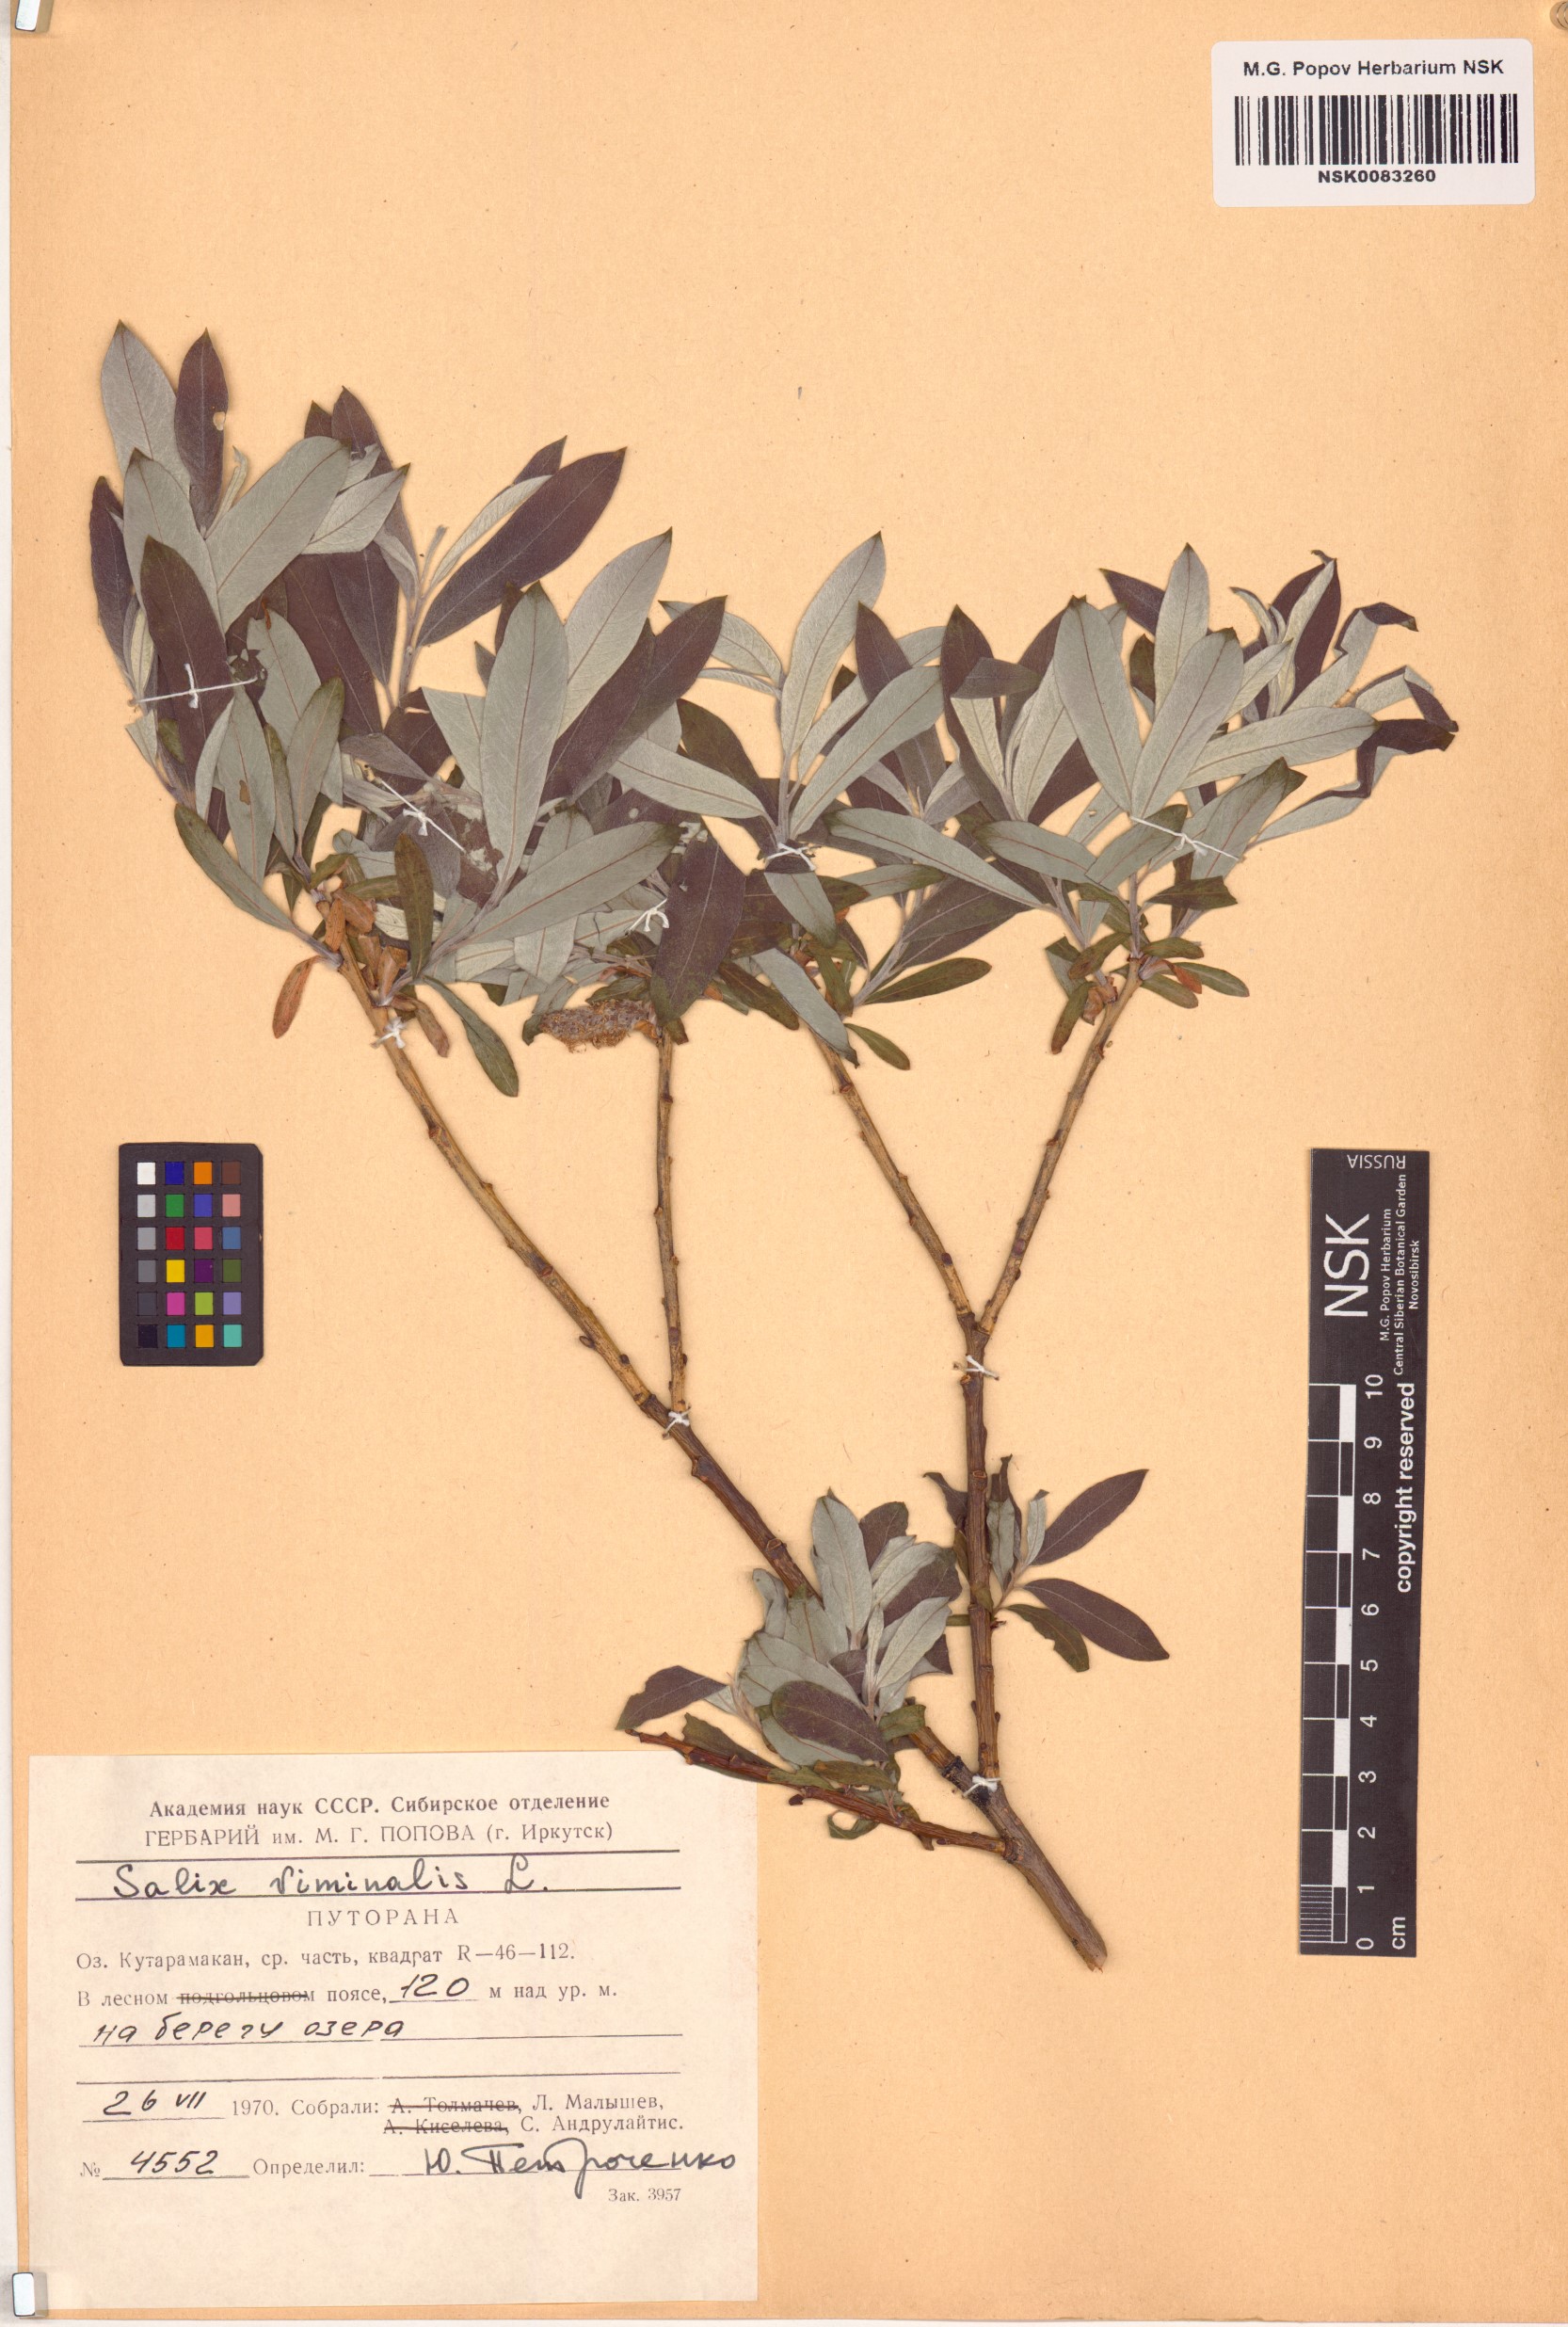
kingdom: Plantae
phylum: Tracheophyta
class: Magnoliopsida
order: Malpighiales
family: Salicaceae
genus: Salix
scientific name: Salix viminalis
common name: Osier
